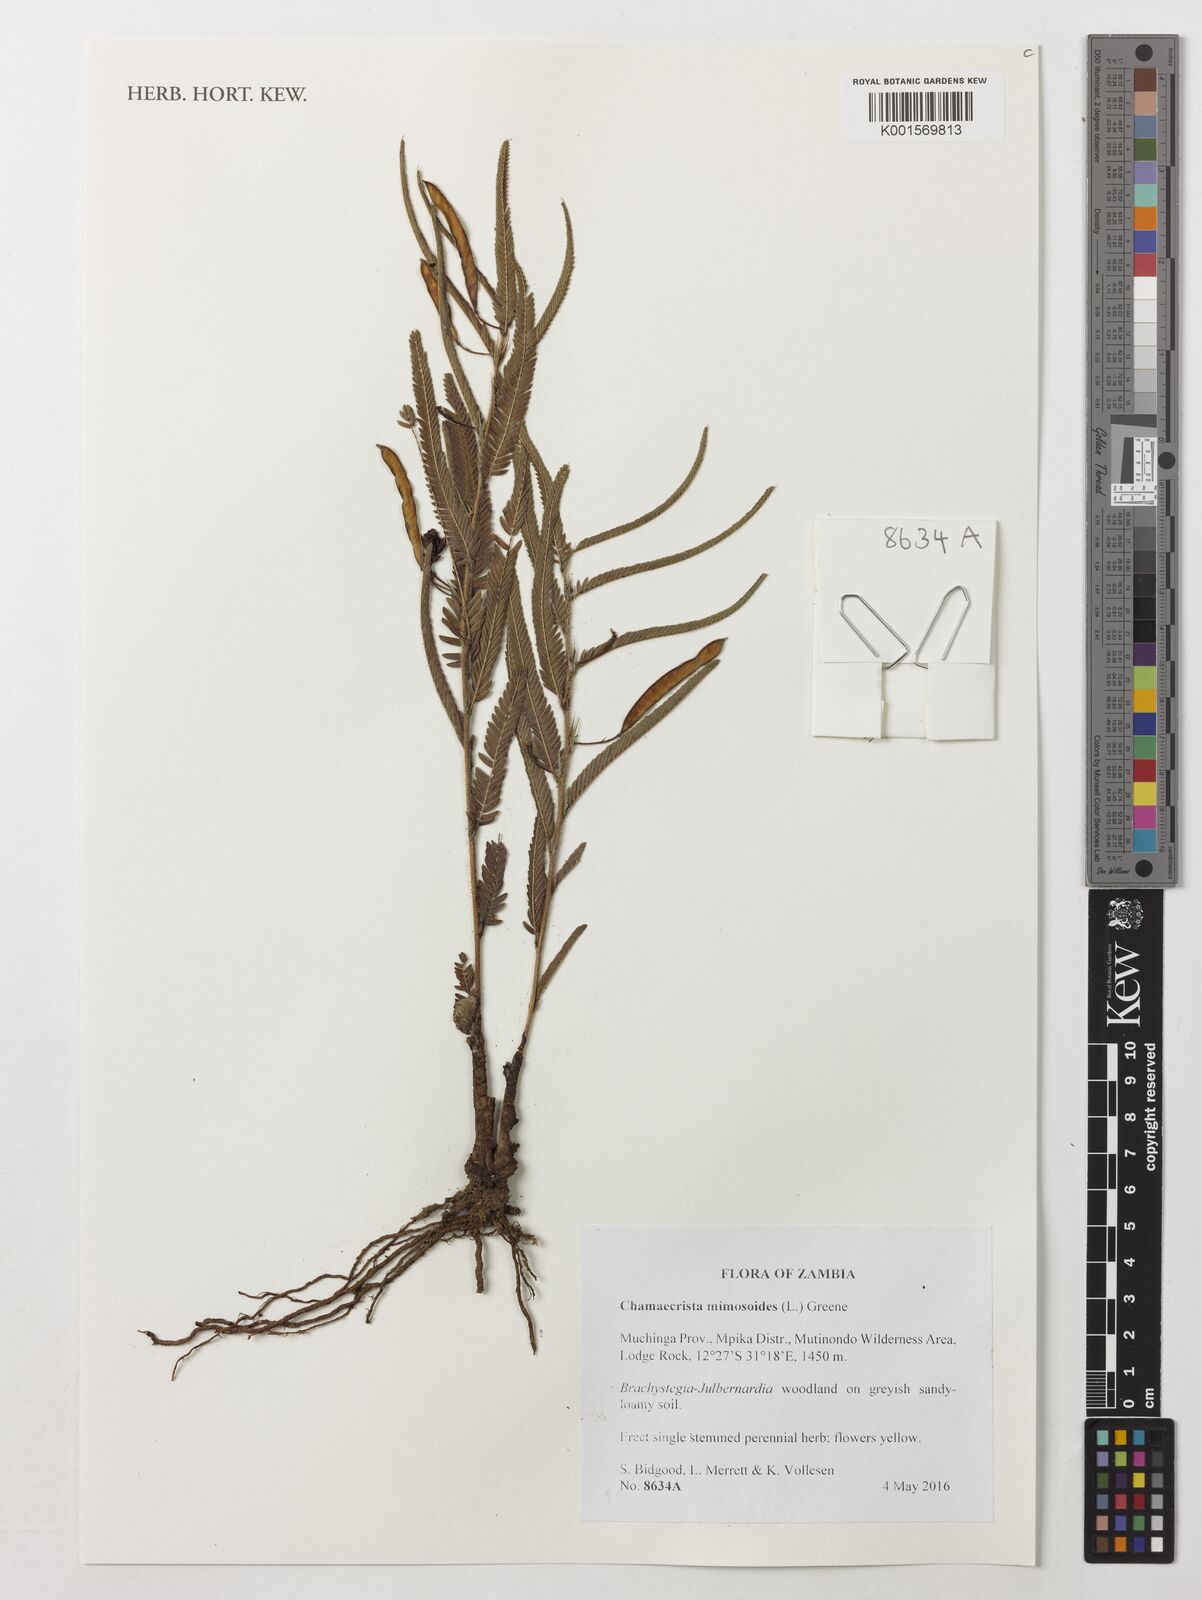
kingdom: Plantae
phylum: Tracheophyta
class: Magnoliopsida
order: Fabales
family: Fabaceae
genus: Chamaecrista
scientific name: Chamaecrista mimosoides
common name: Fish-bone cassia
